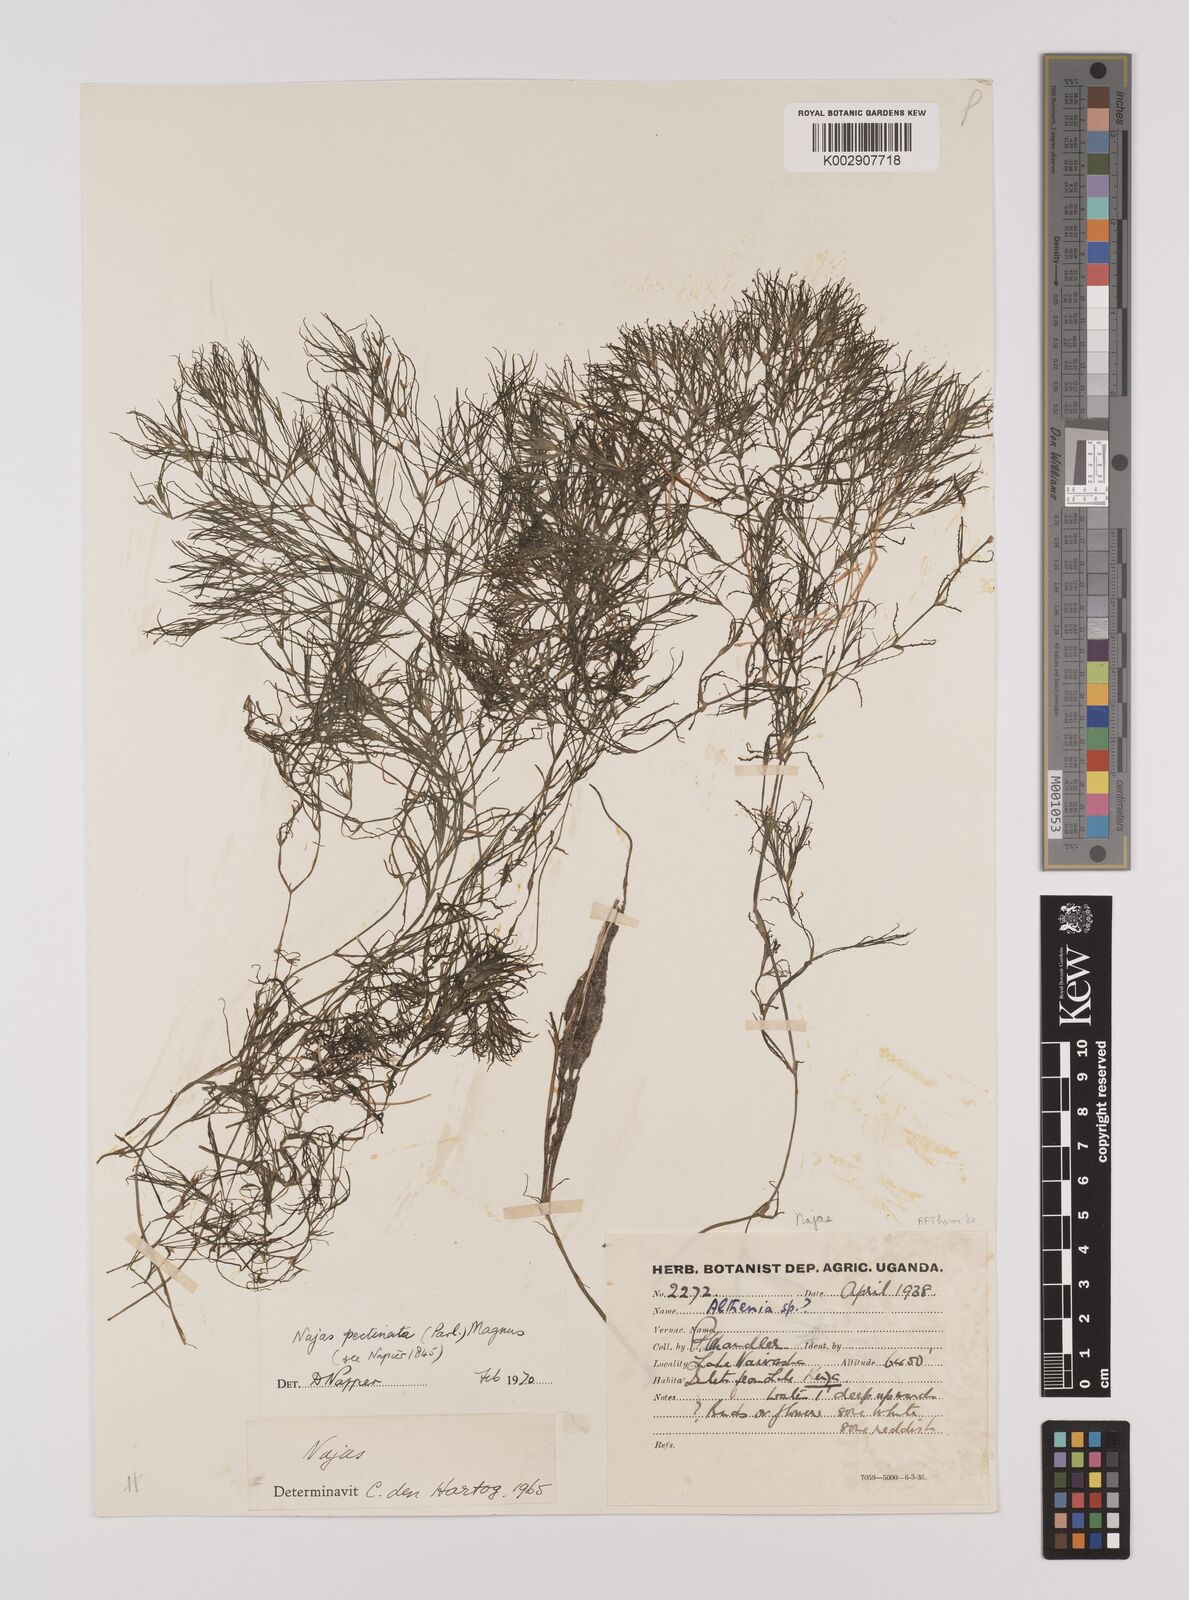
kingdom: Plantae
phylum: Tracheophyta
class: Liliopsida
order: Alismatales
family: Hydrocharitaceae
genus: Najas
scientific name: Najas horrida
